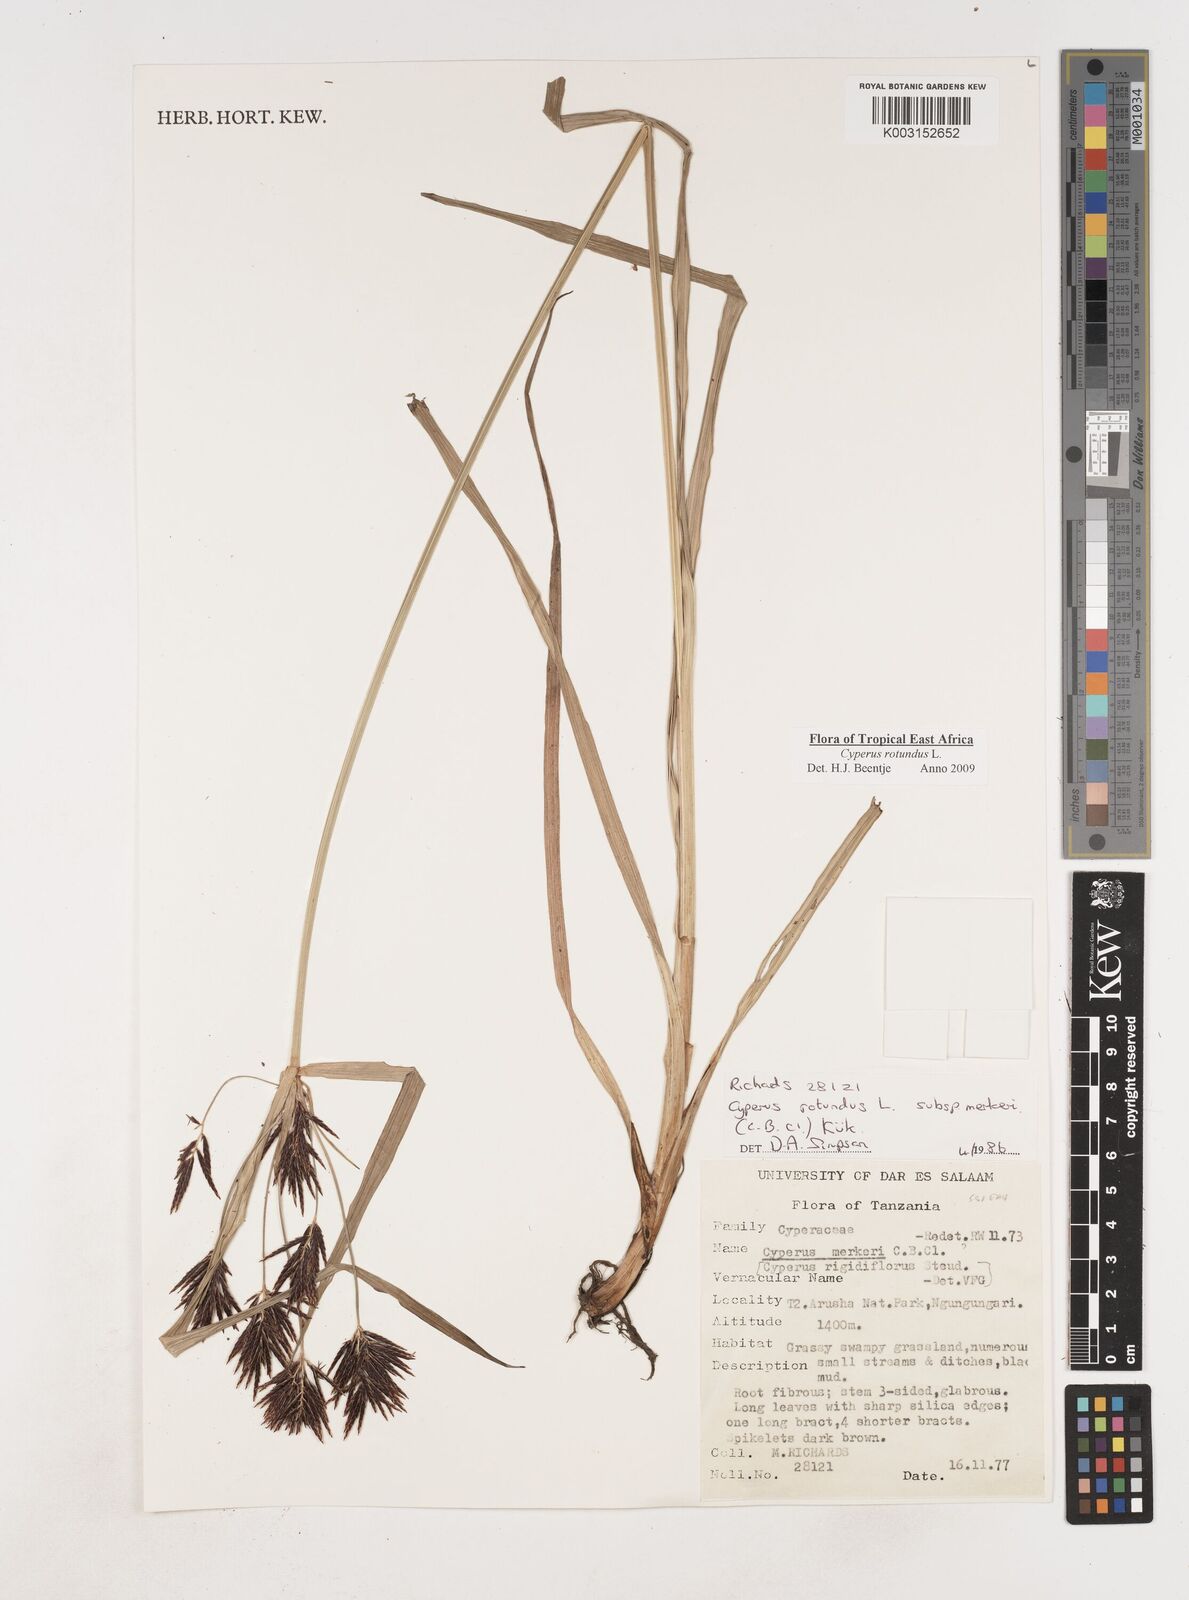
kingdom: Plantae
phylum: Tracheophyta
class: Liliopsida
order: Poales
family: Cyperaceae
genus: Cyperus
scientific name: Cyperus rotundus
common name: Nutgrass
